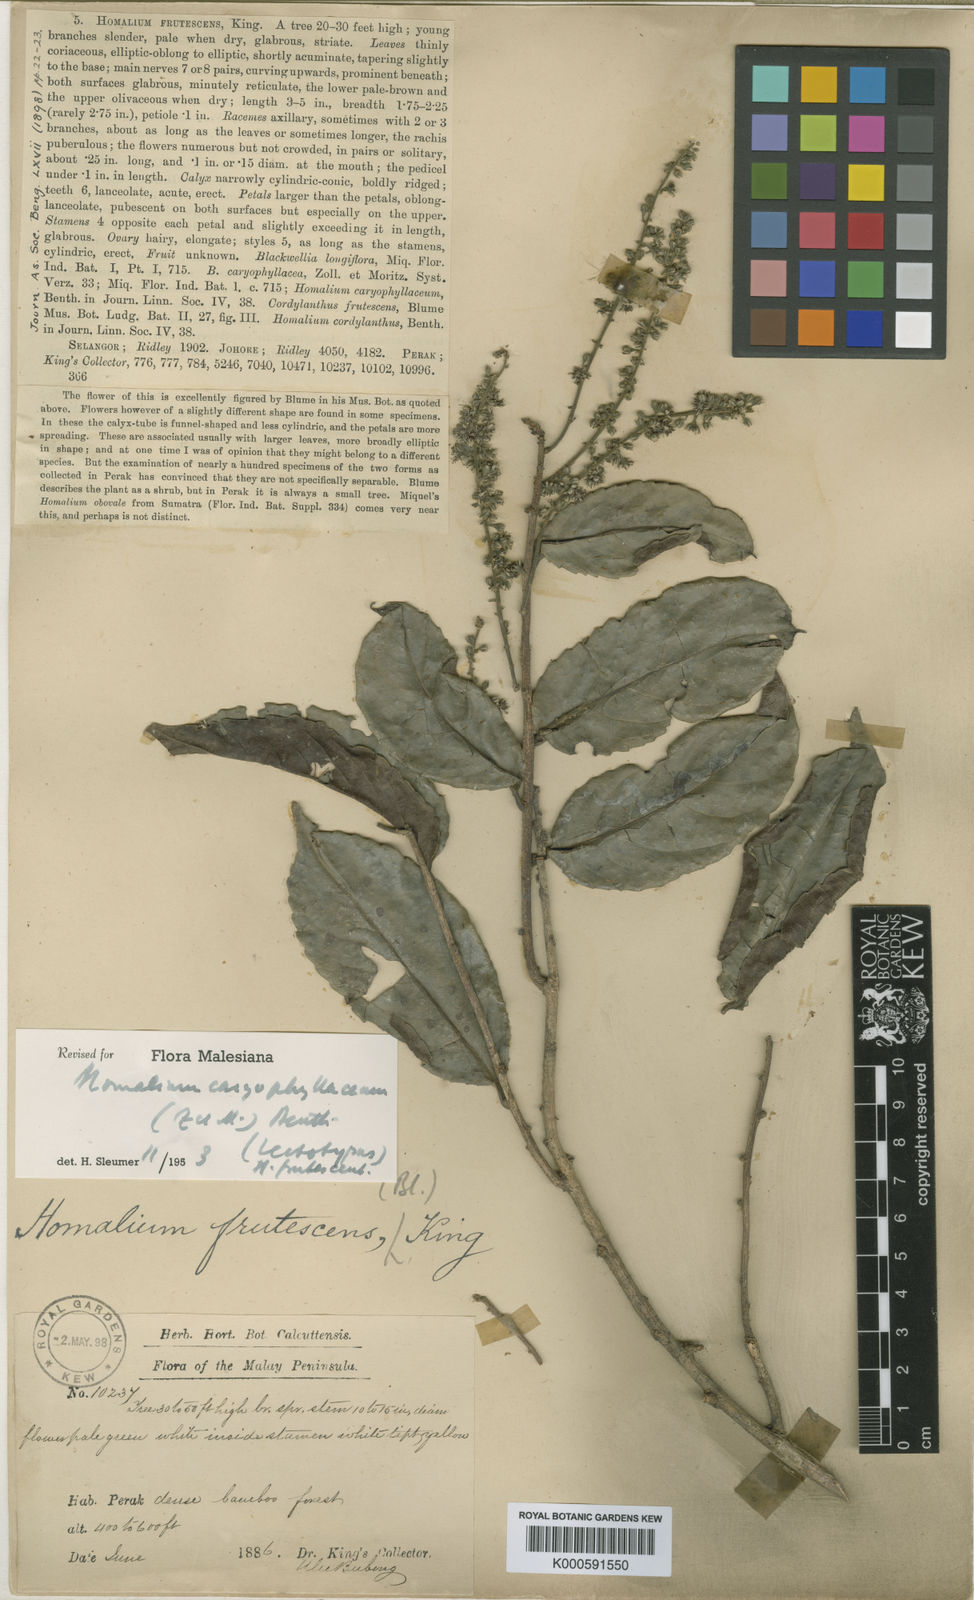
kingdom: Plantae
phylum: Tracheophyta
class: Magnoliopsida
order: Malpighiales
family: Salicaceae
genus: Homalium
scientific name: Homalium caryophyllaceum
